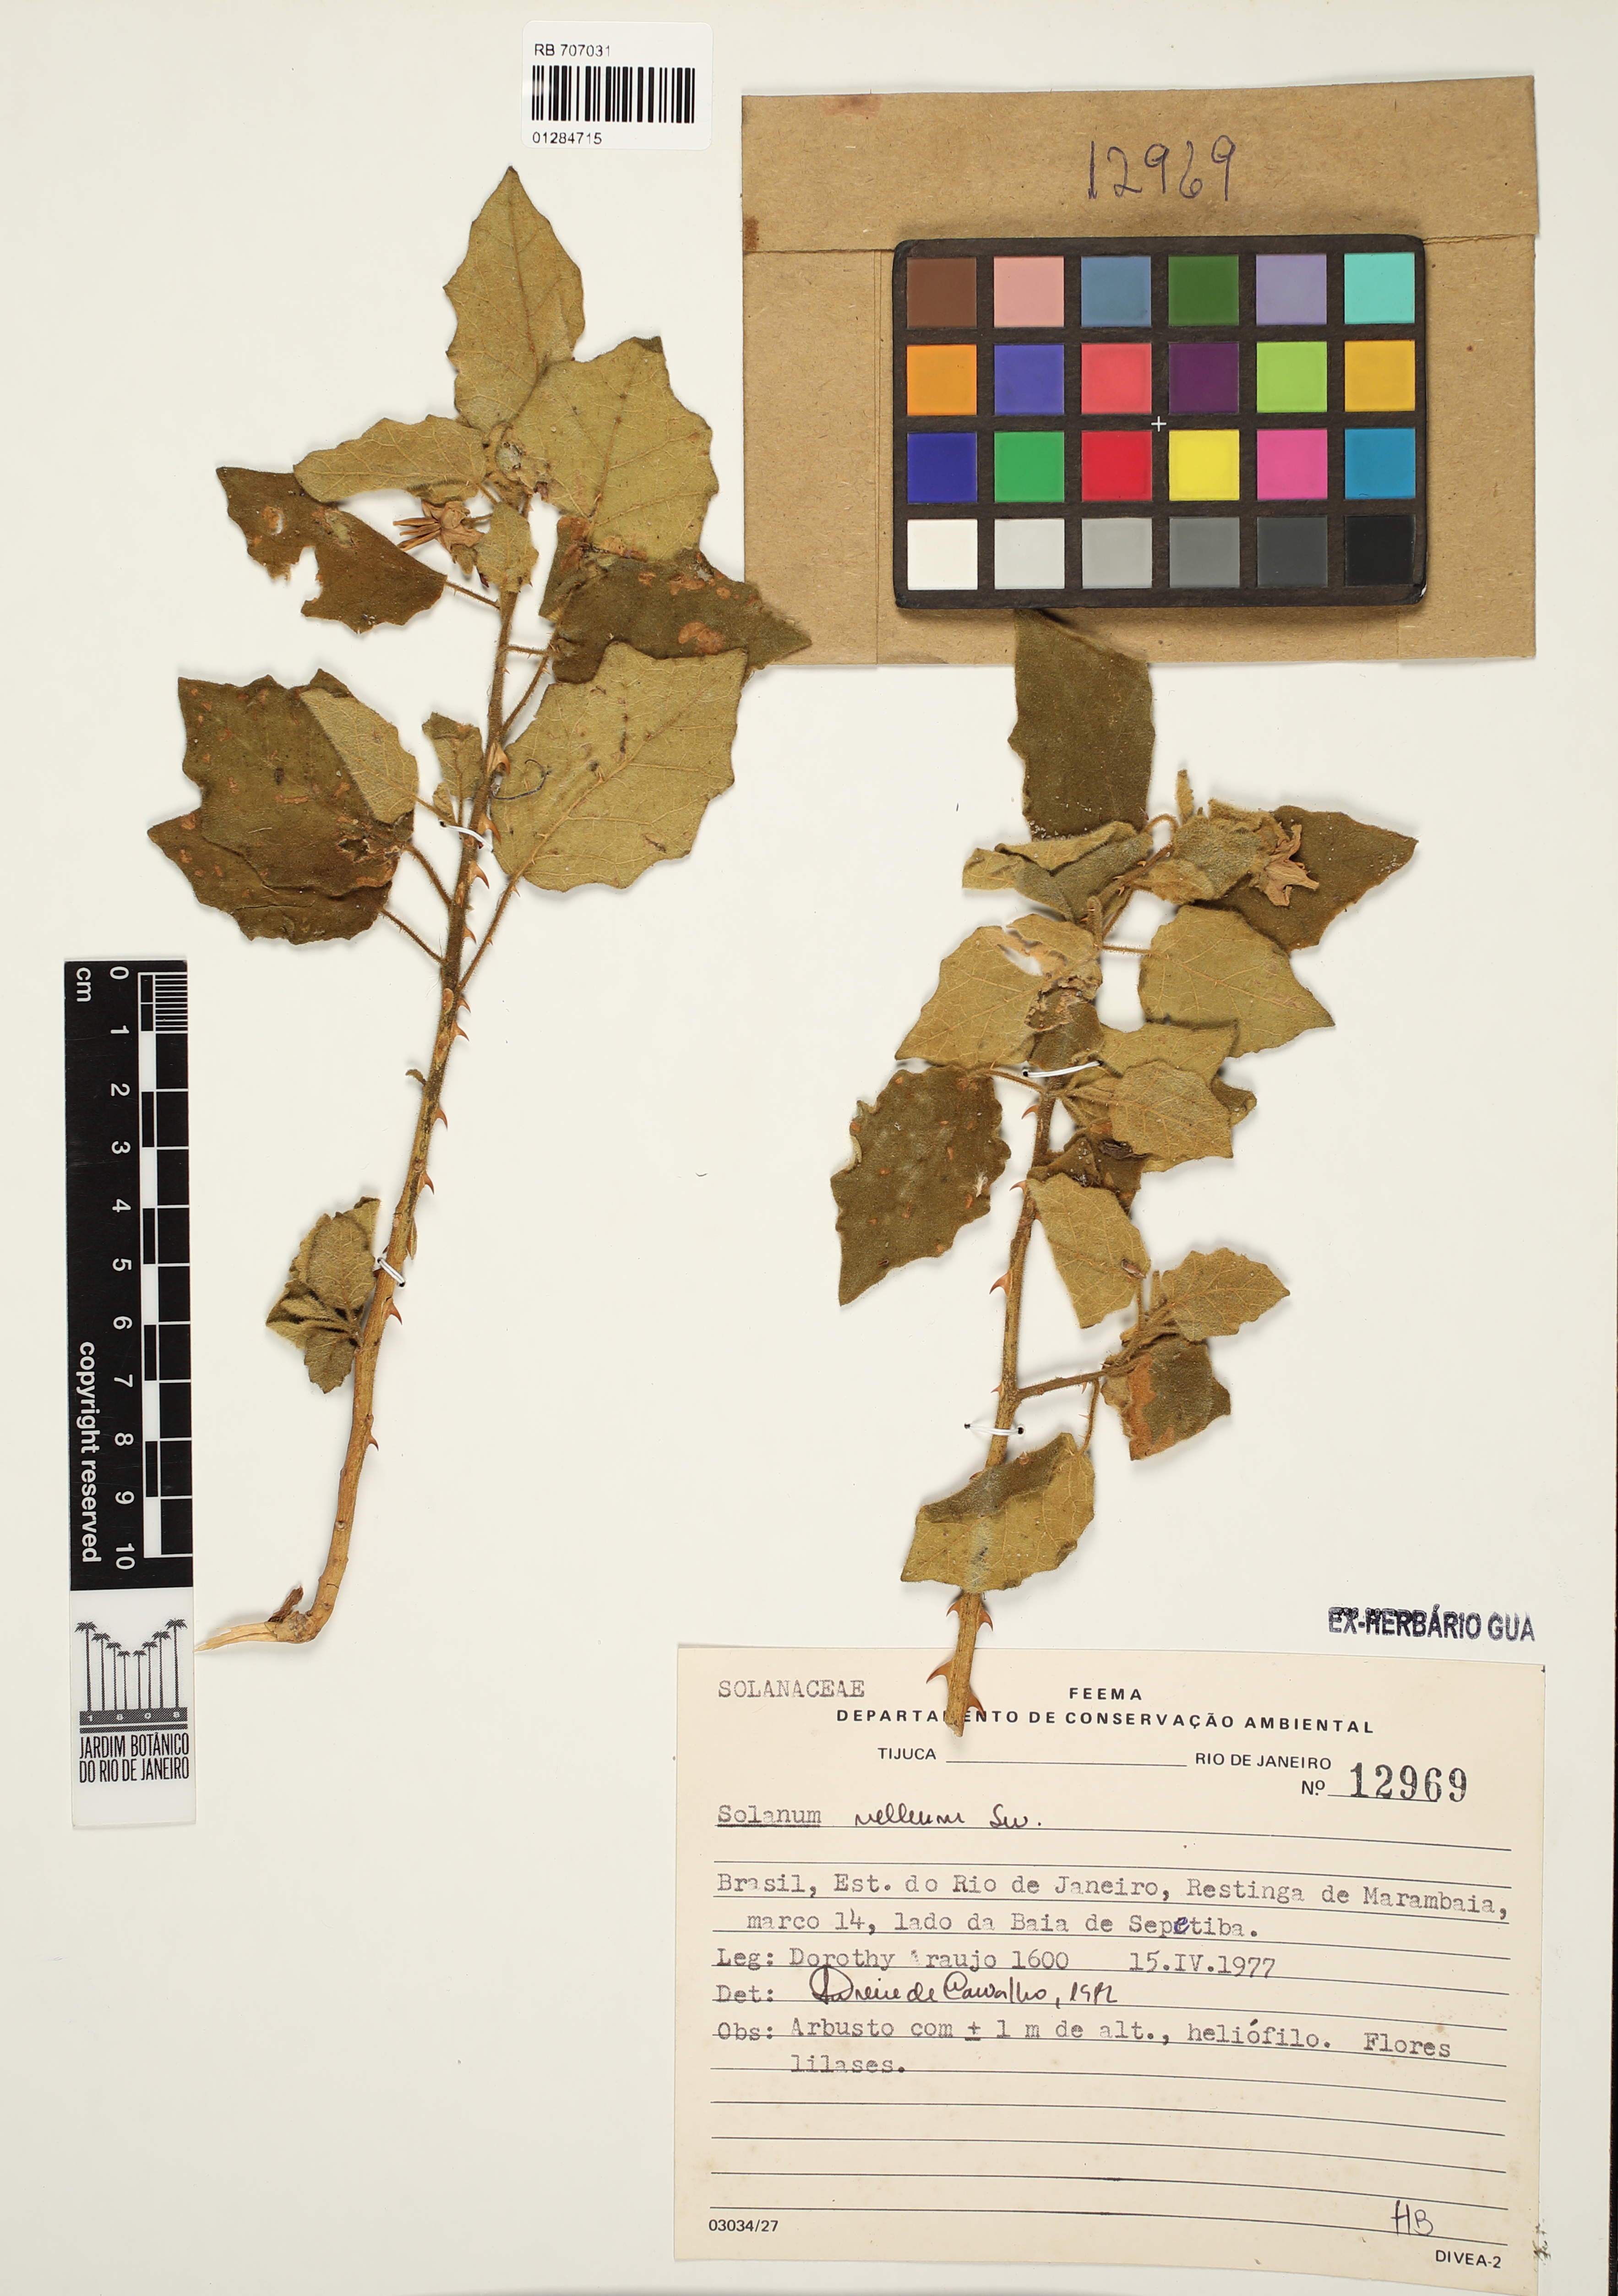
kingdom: Plantae
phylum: Tracheophyta
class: Magnoliopsida
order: Solanales
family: Solanaceae
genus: Solanum
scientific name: Solanum velleum
